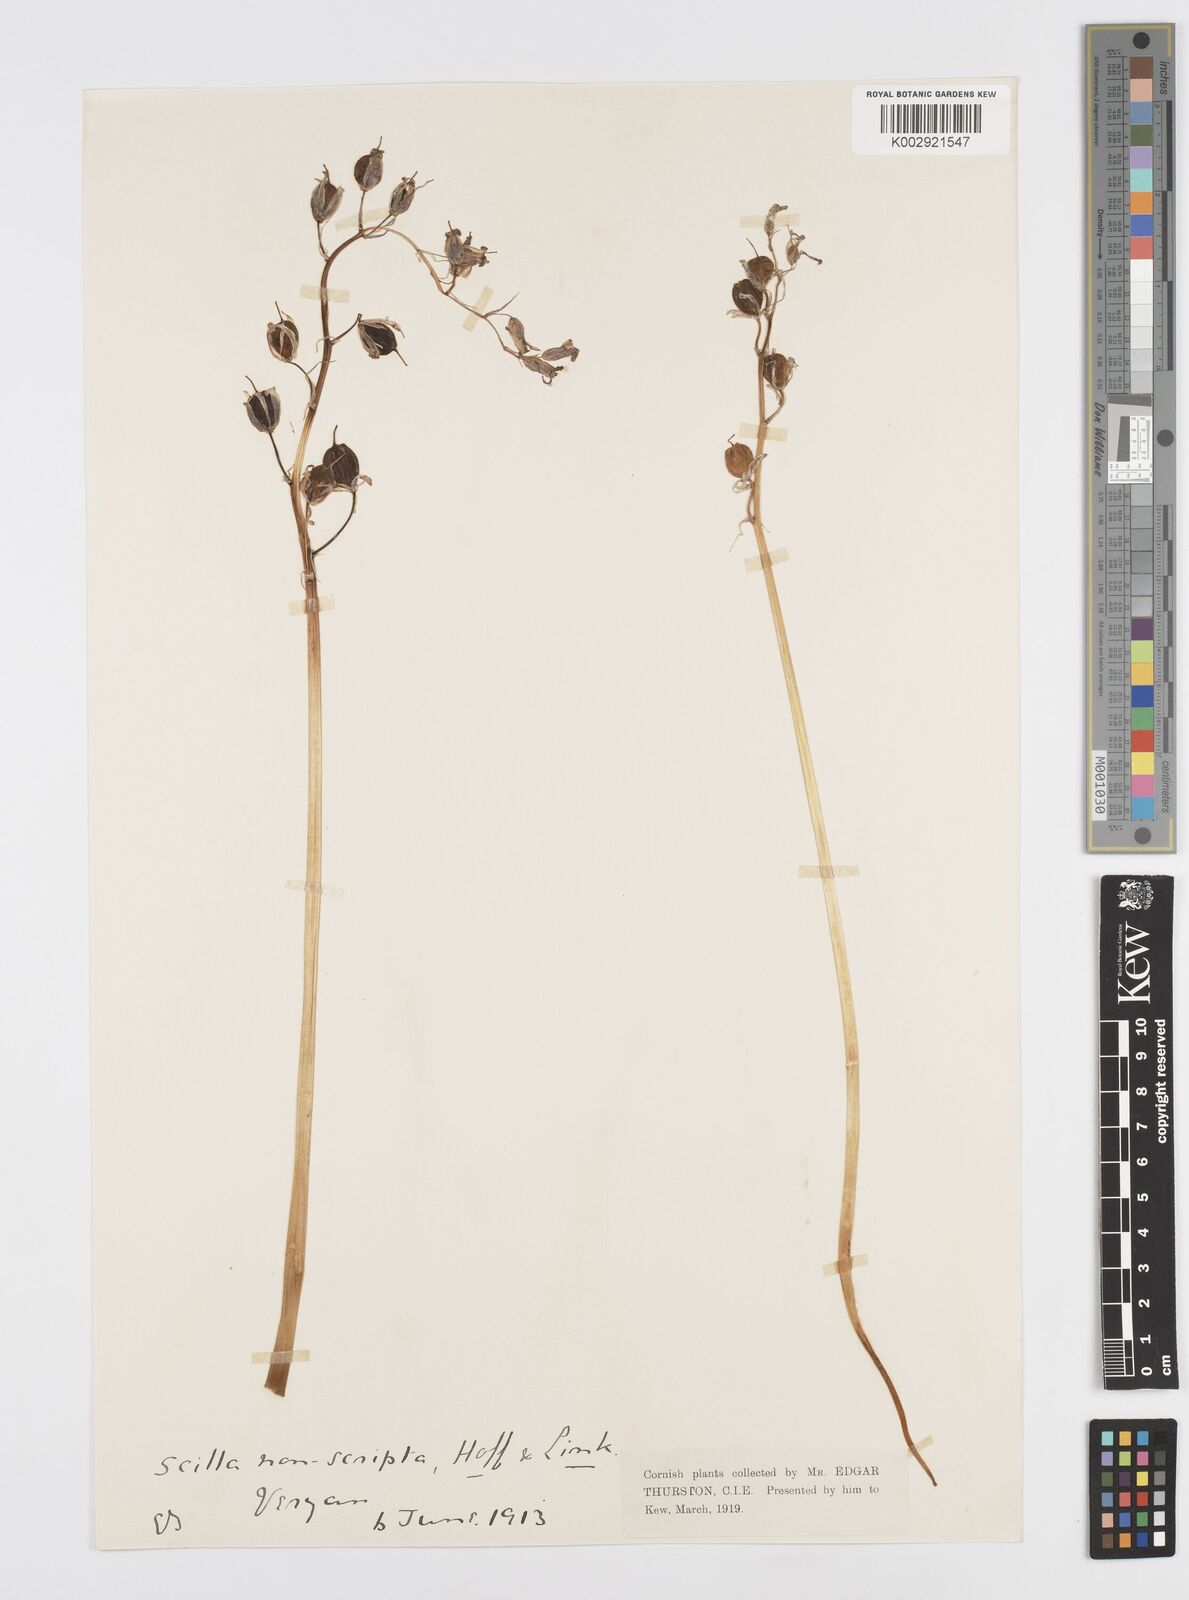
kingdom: Plantae
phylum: Tracheophyta
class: Liliopsida
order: Asparagales
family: Asparagaceae
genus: Hyacinthoides
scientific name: Hyacinthoides non-scripta
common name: Bluebell
